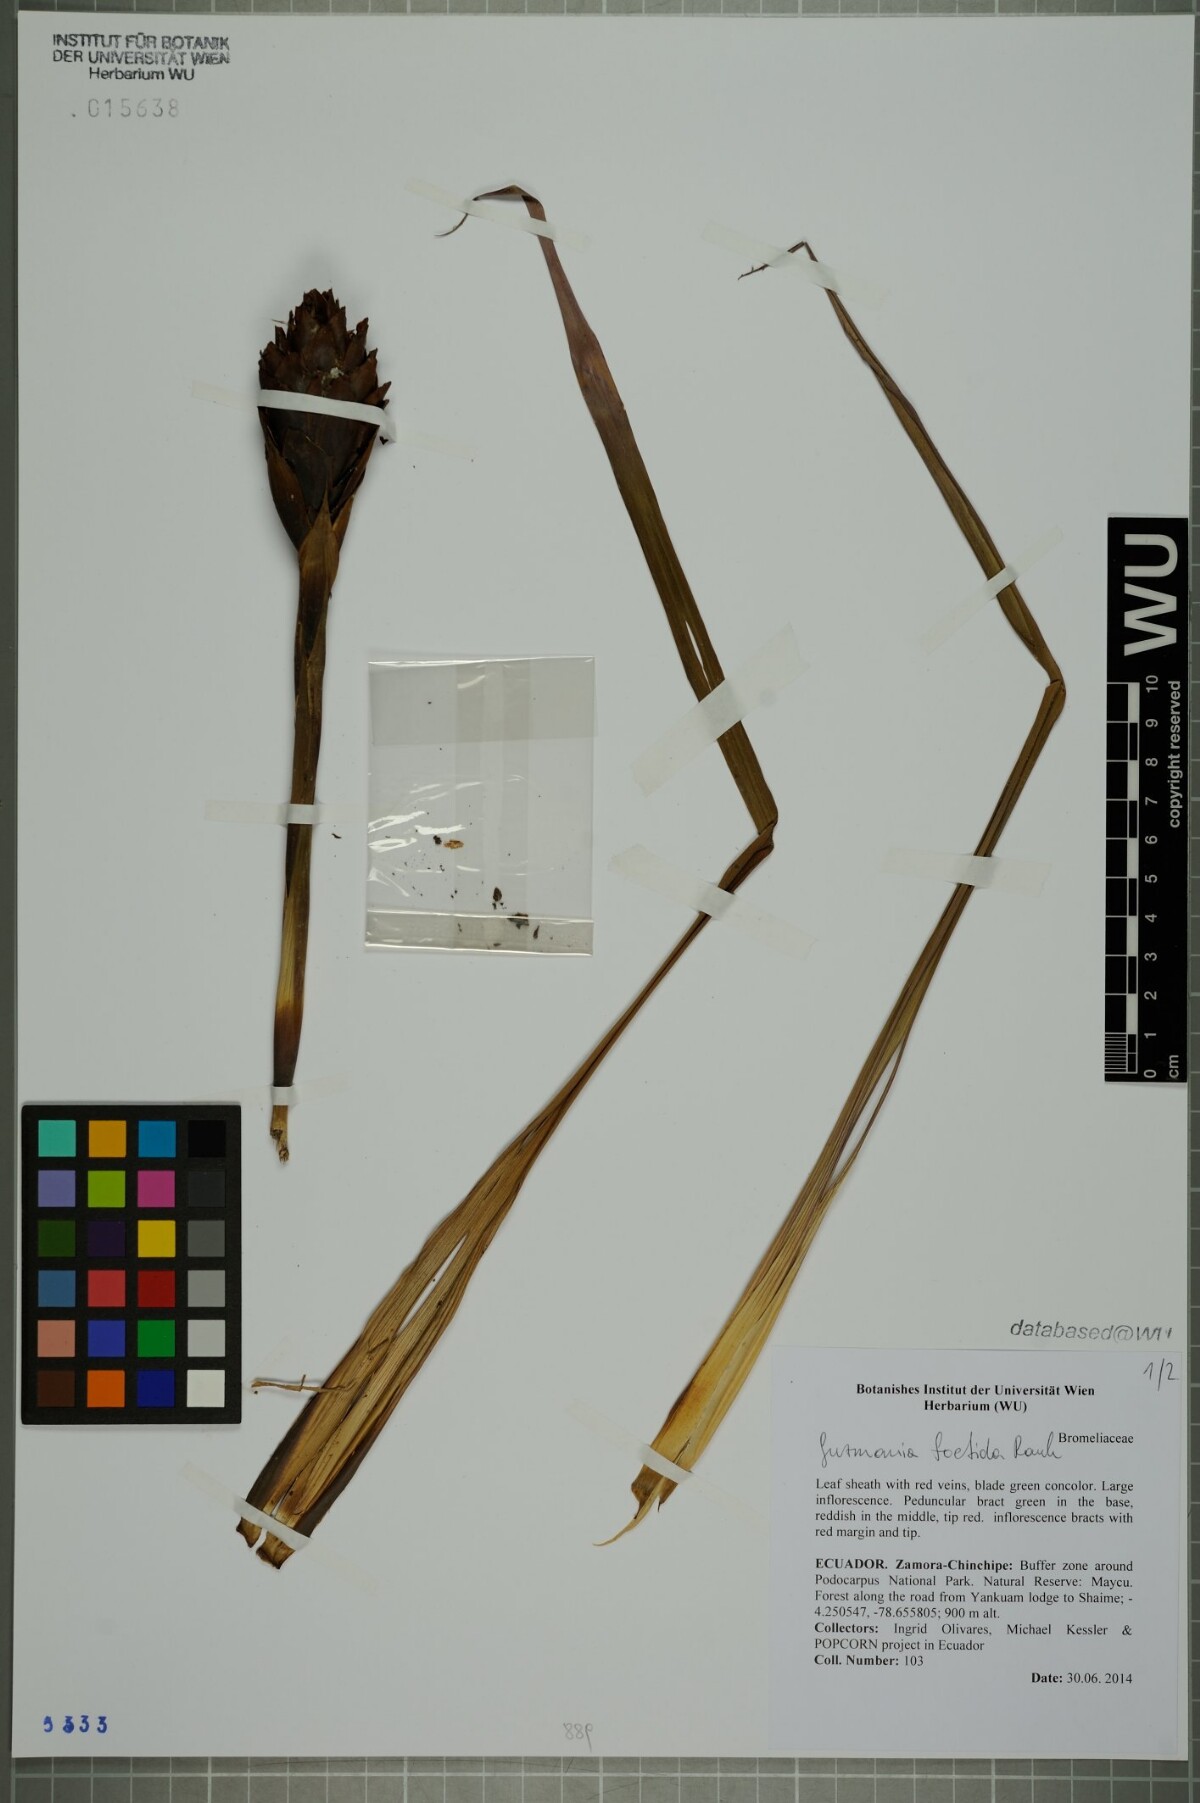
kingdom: Plantae
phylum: Tracheophyta
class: Liliopsida
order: Poales
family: Bromeliaceae
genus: Guzmania
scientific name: Guzmania foetida
